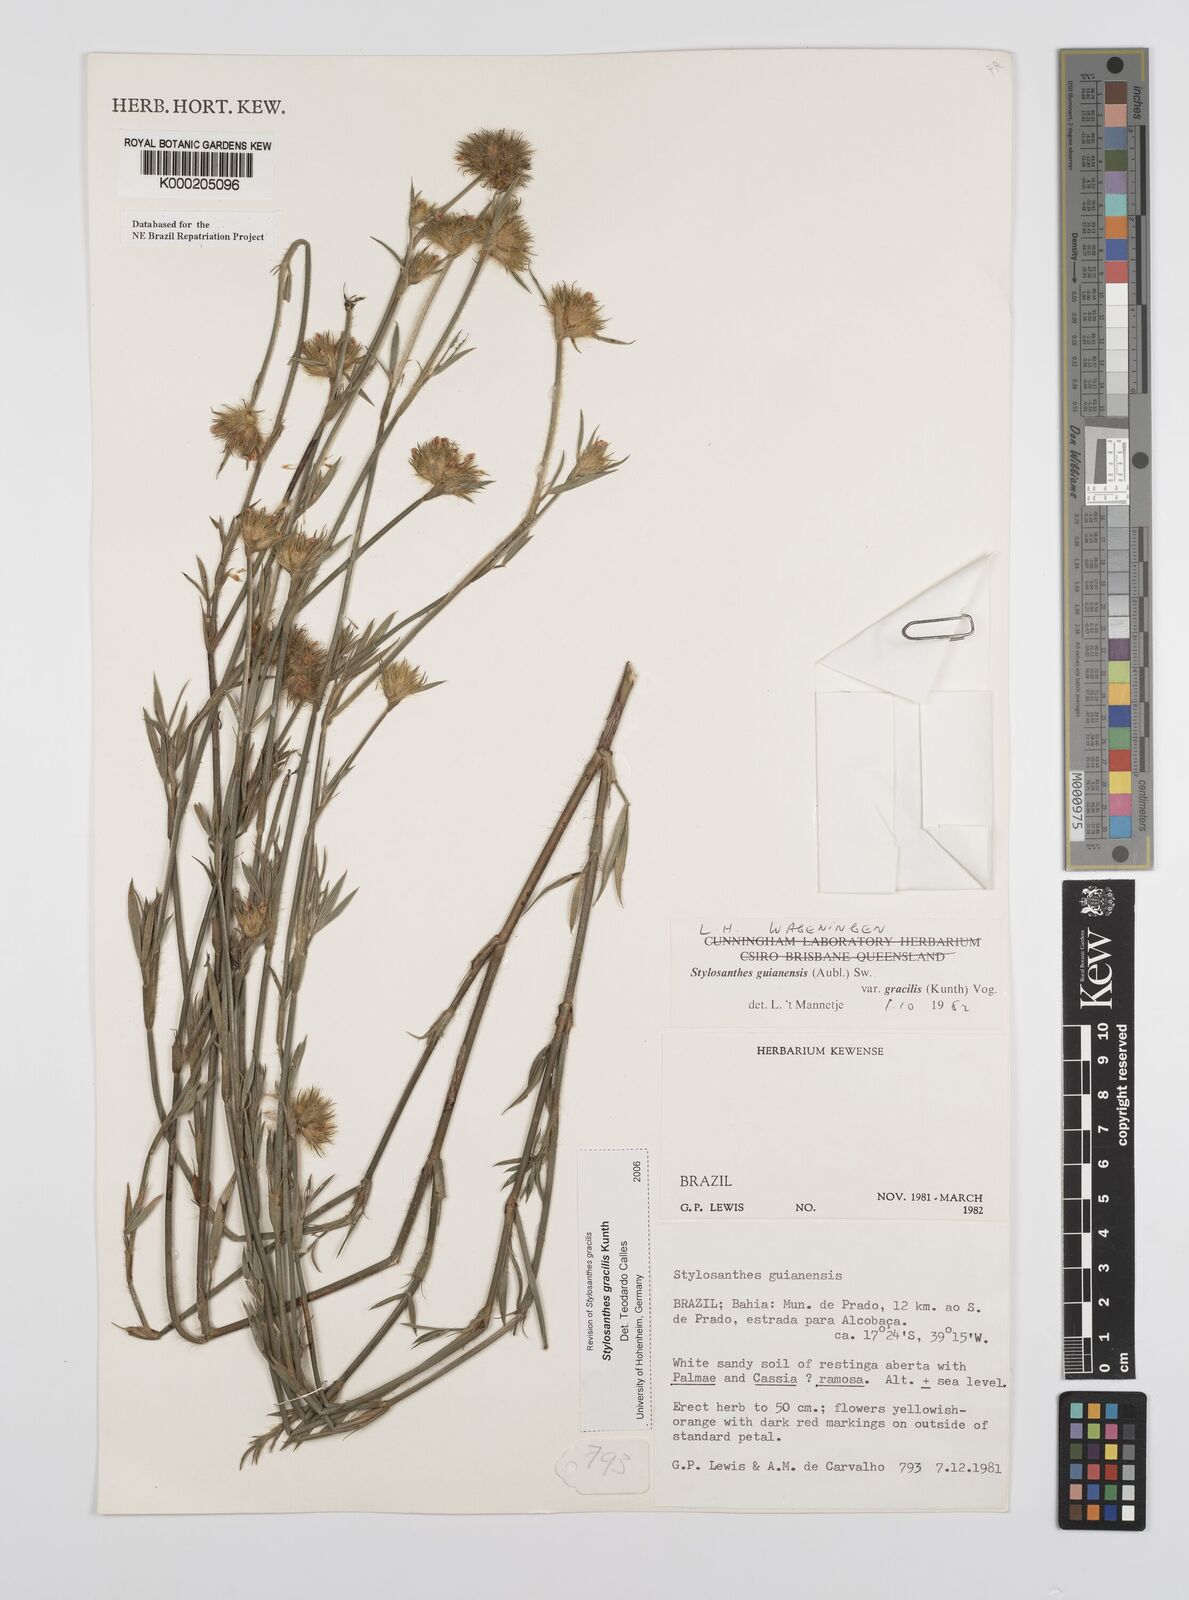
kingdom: Plantae
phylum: Tracheophyta
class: Magnoliopsida
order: Fabales
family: Fabaceae
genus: Stylosanthes
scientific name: Stylosanthes guianensis
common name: Pencil flower
